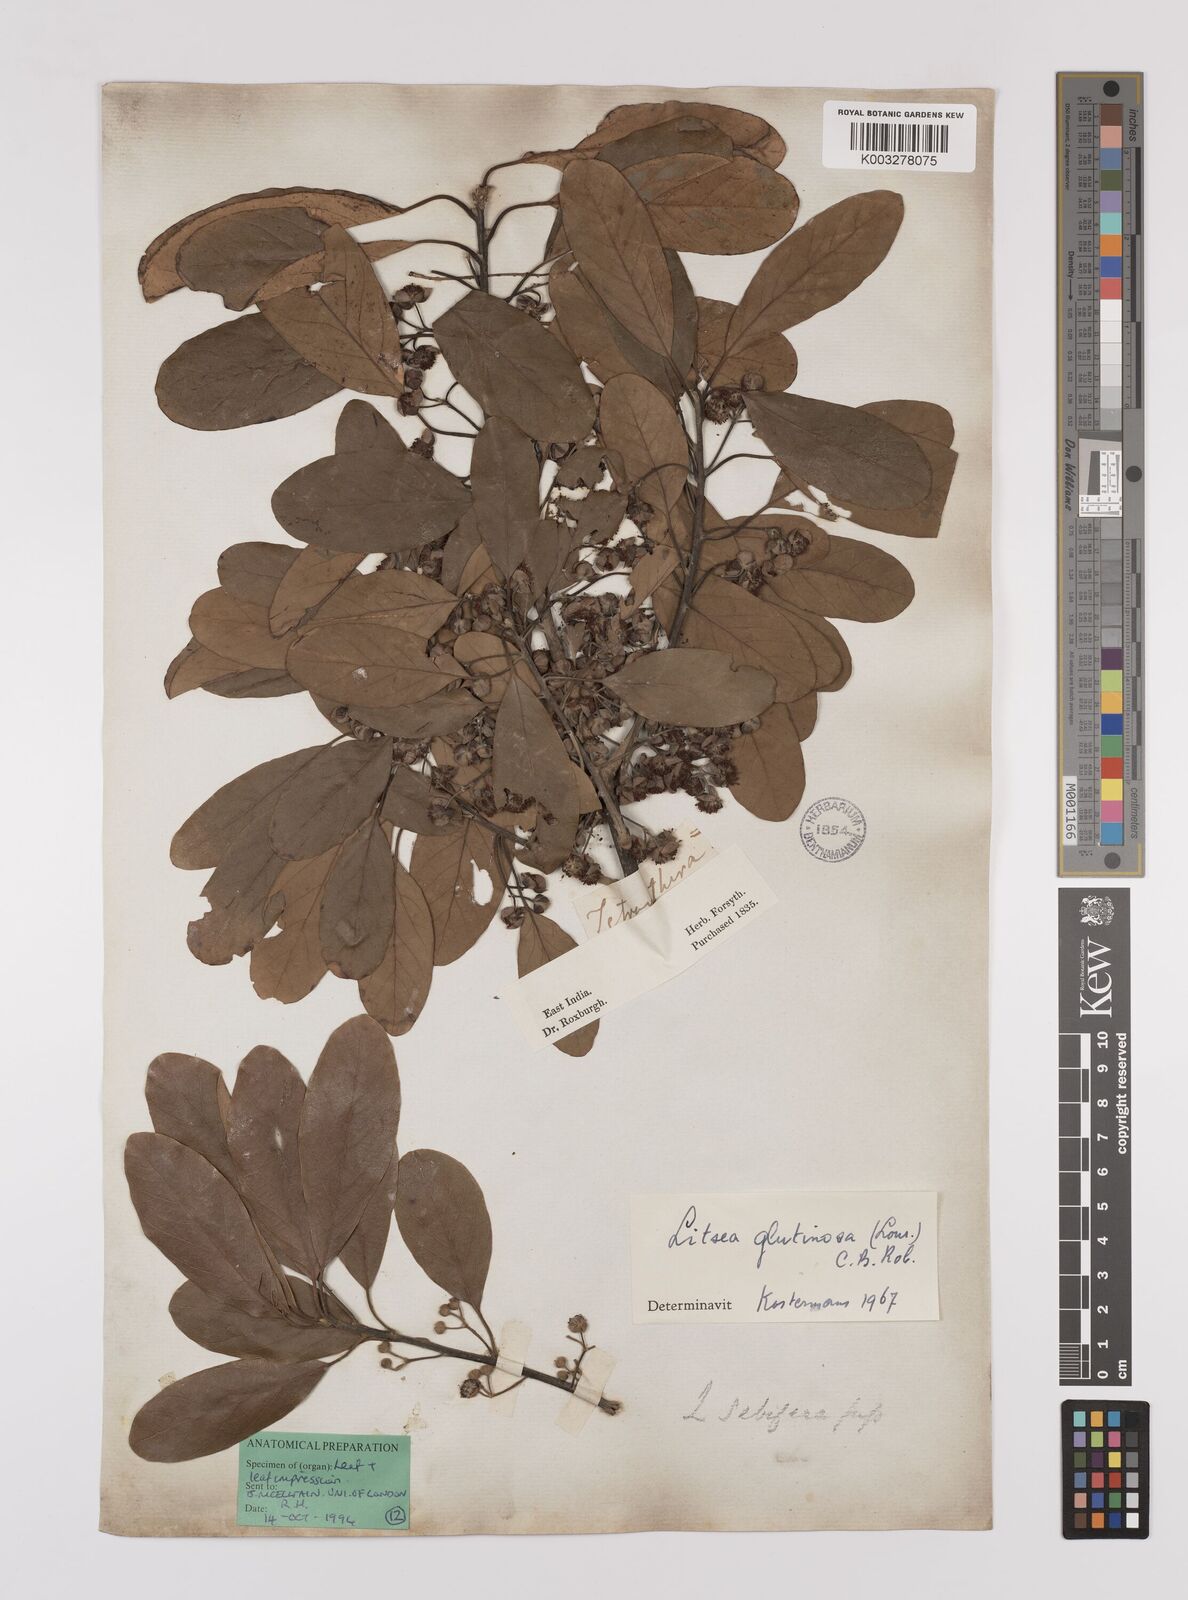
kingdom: Plantae
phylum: Tracheophyta
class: Magnoliopsida
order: Laurales
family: Lauraceae
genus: Litsea
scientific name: Litsea glutinosa
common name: Indian-laurel
